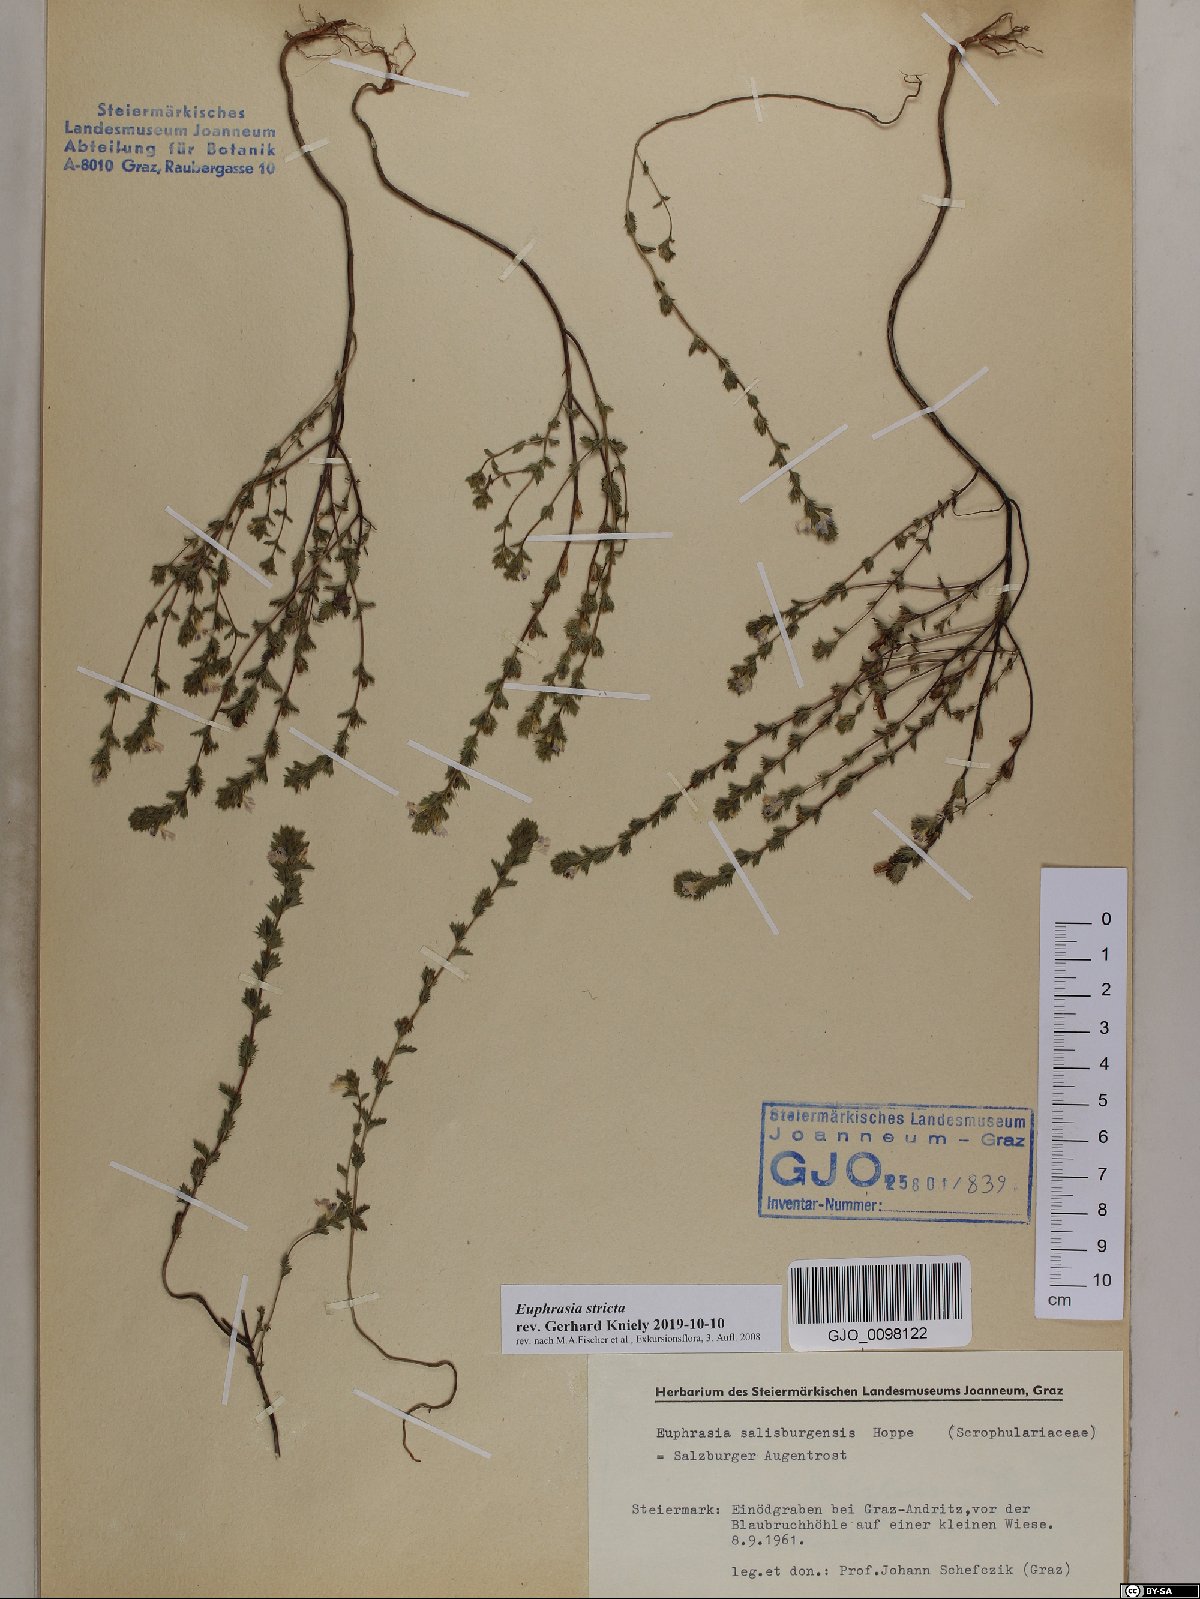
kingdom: Plantae
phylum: Tracheophyta
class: Magnoliopsida
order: Lamiales
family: Orobanchaceae
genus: Euphrasia
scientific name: Euphrasia stricta
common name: Drug eyebright
